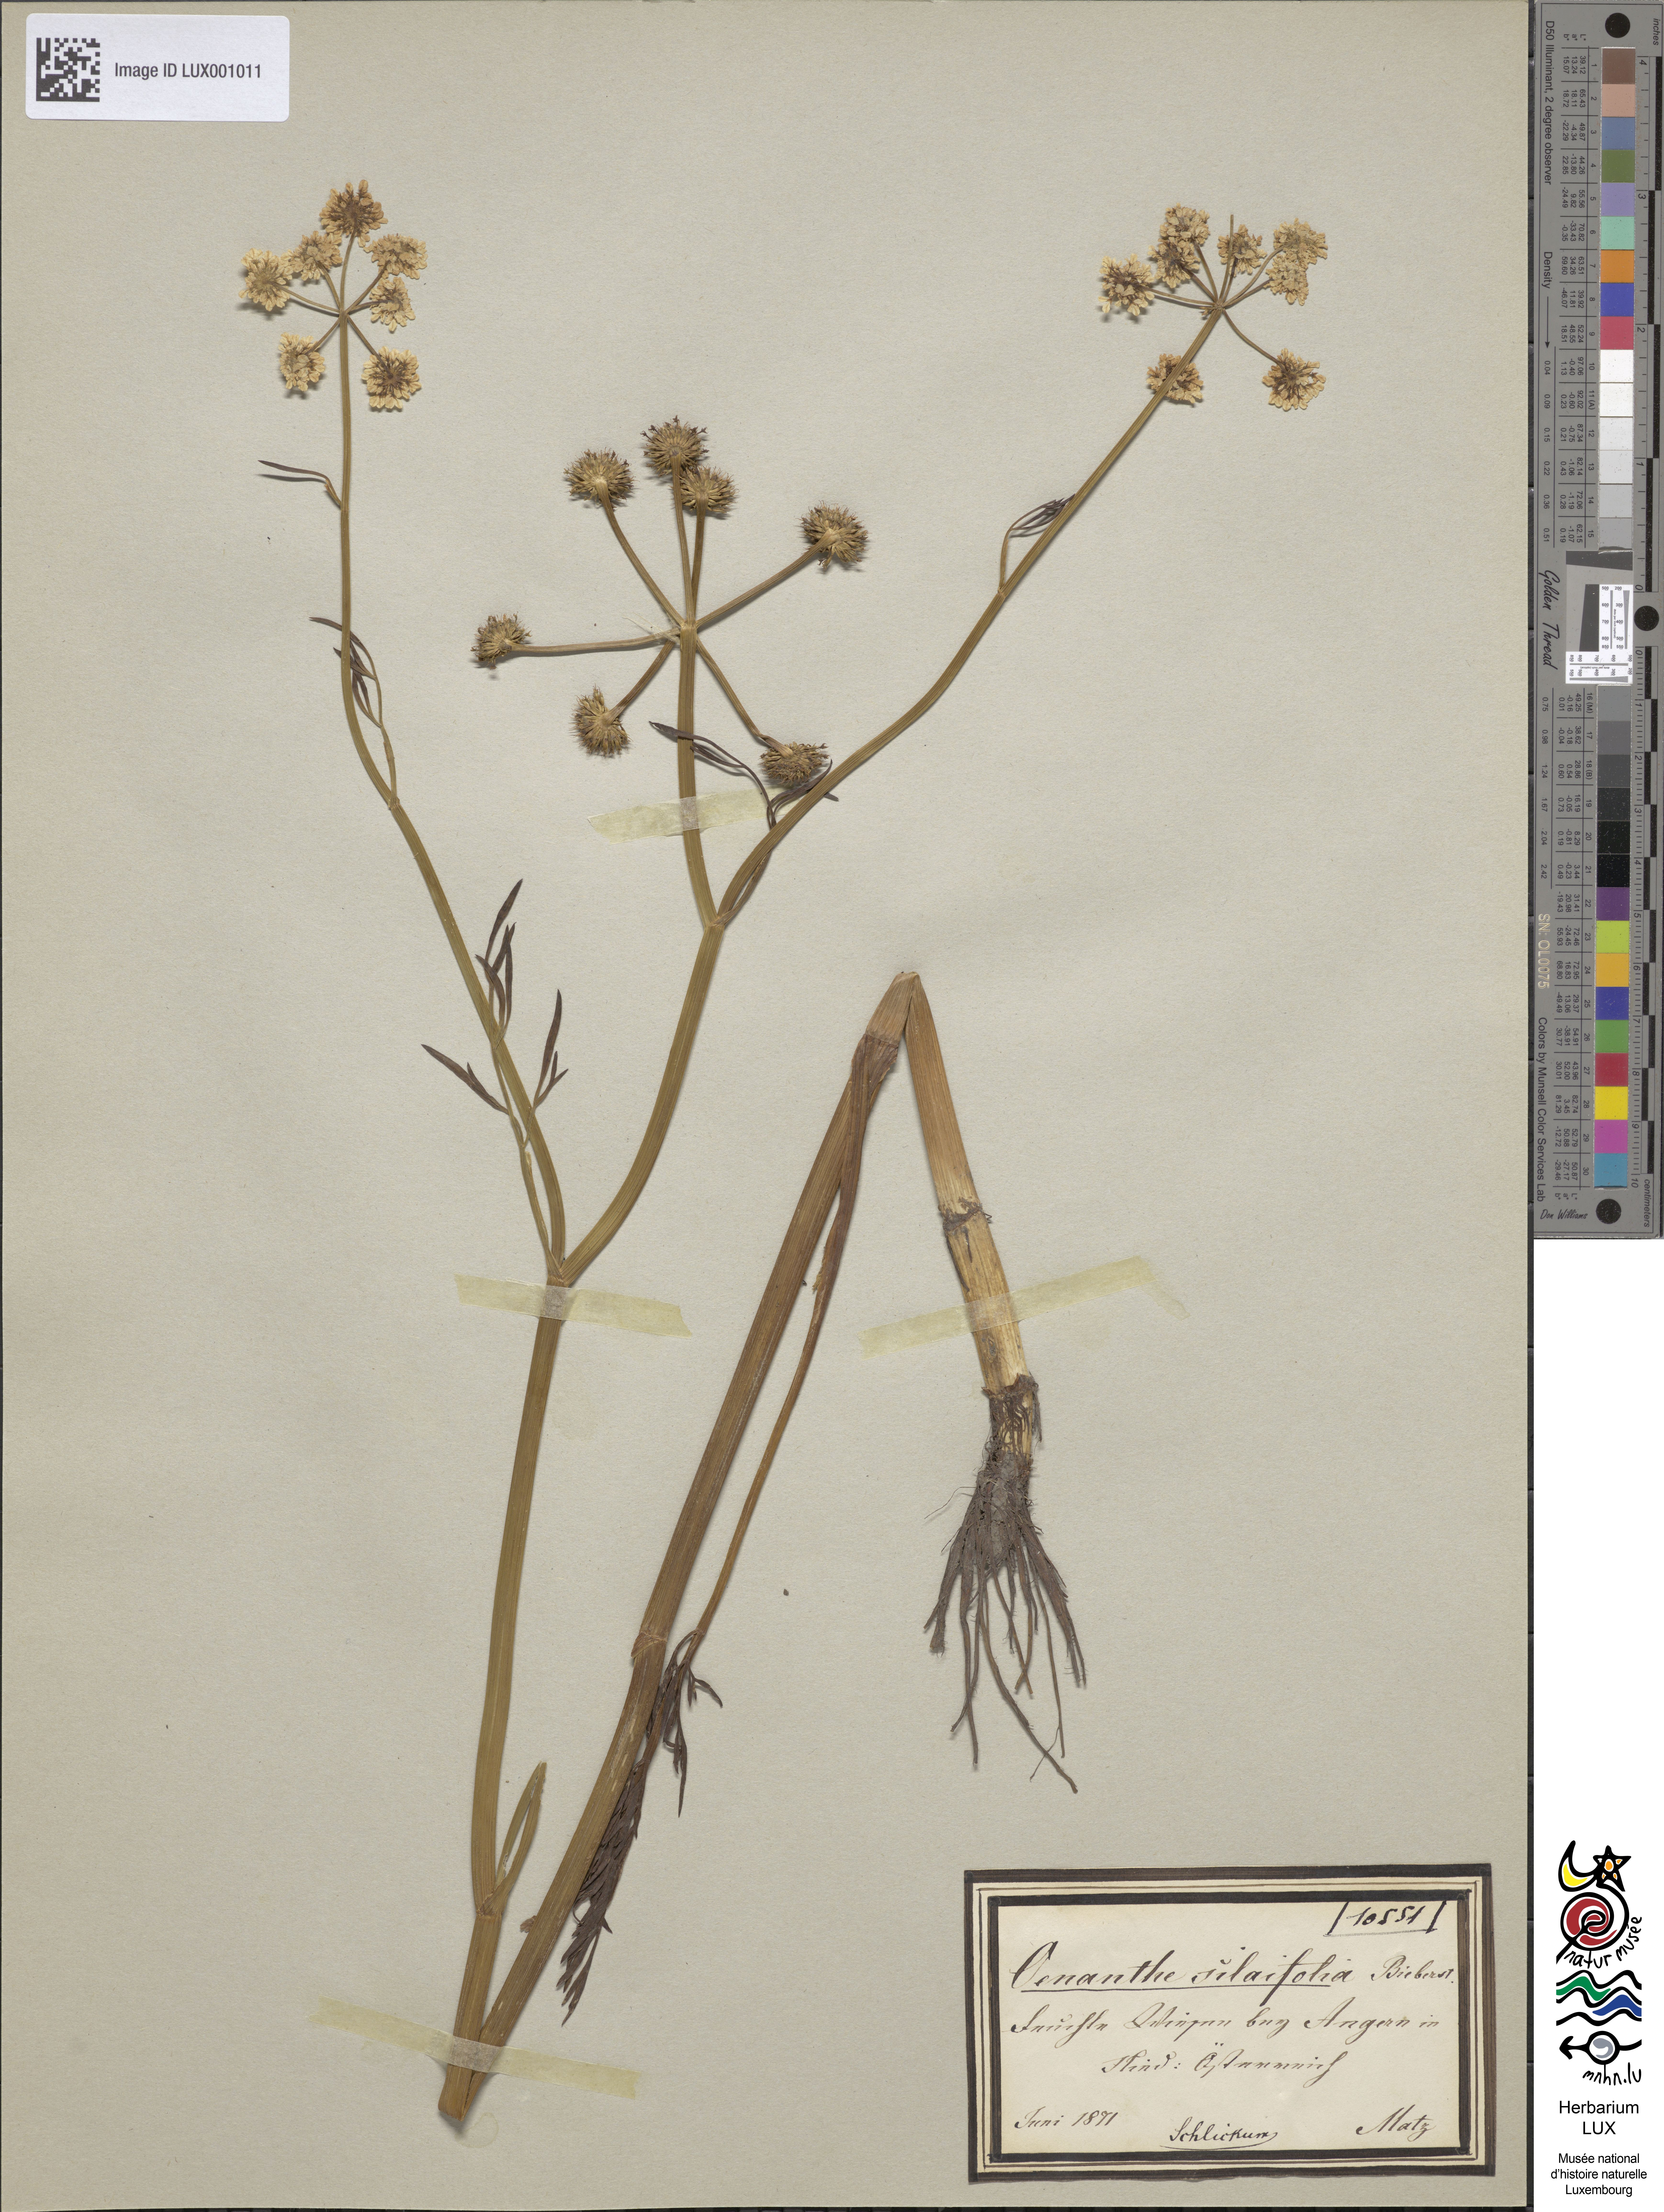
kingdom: Plantae
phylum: Tracheophyta
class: Magnoliopsida
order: Apiales
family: Apiaceae
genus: Oenanthe
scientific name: Oenanthe silaifolia
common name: Narrow-leaved water-dropwort
